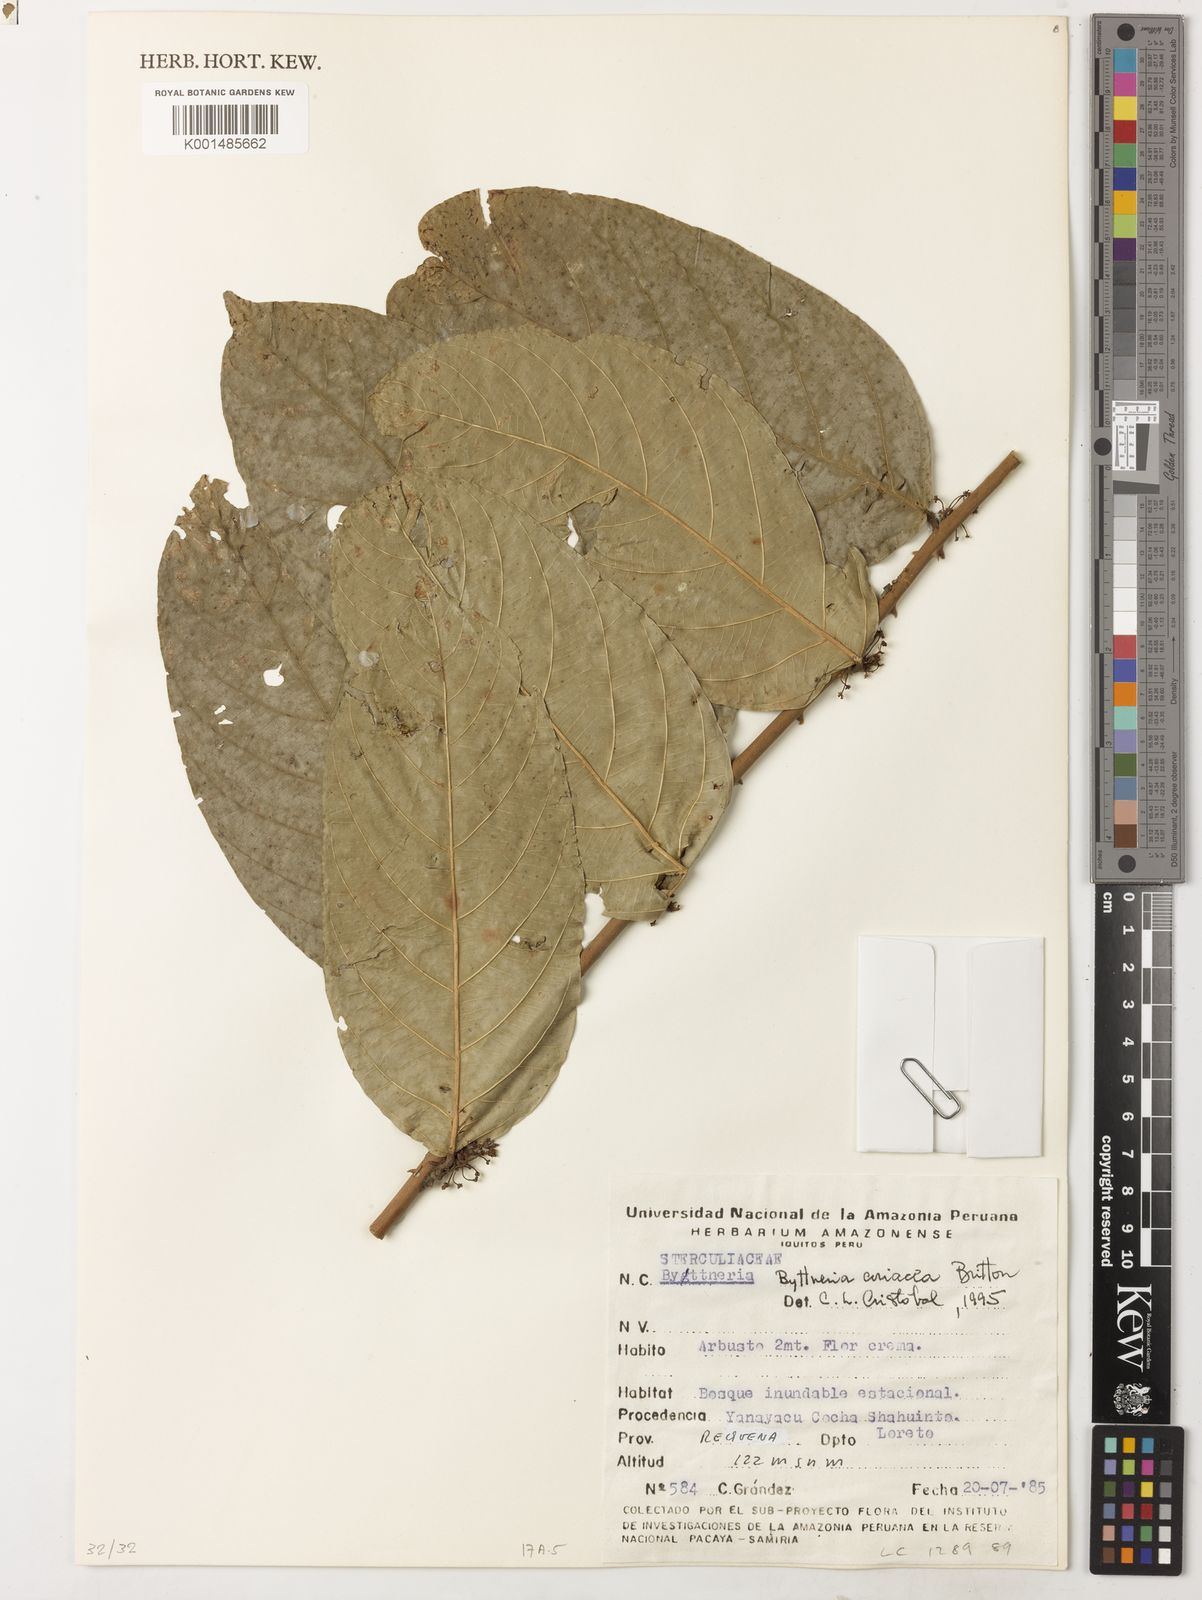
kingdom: Plantae
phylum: Tracheophyta
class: Magnoliopsida
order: Malvales
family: Malvaceae
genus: Byttneria
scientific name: Byttneria coriacea
